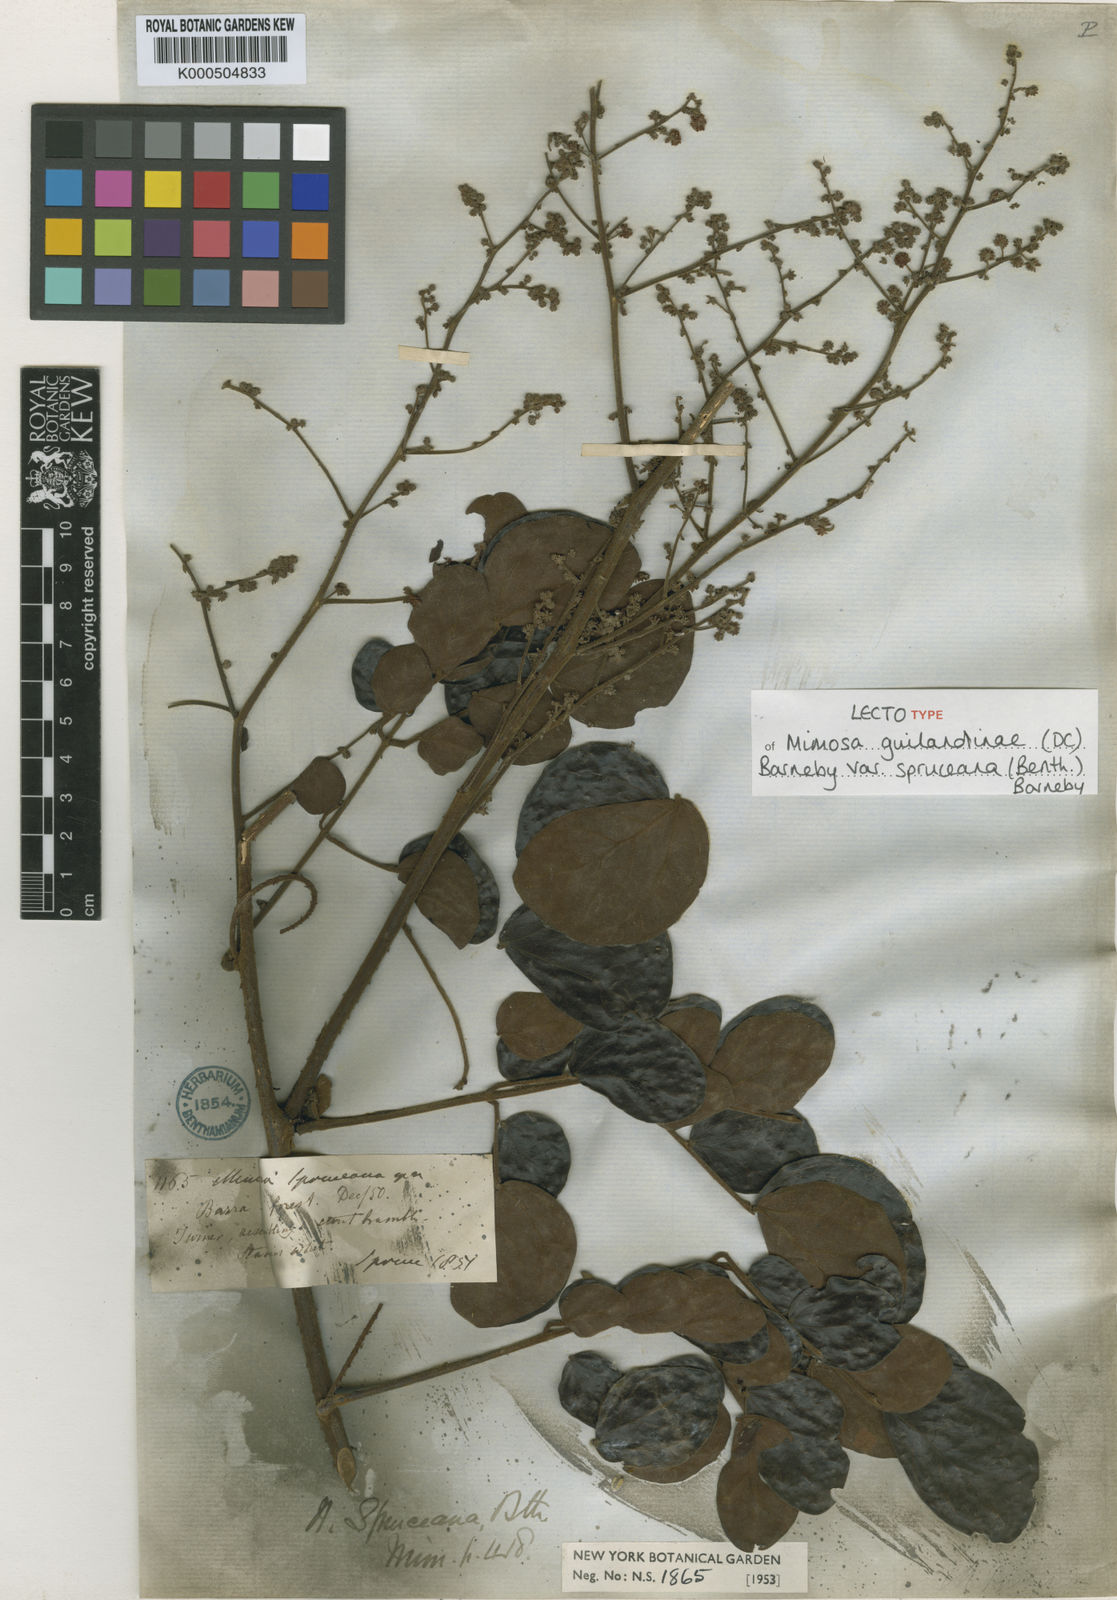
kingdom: Plantae
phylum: Tracheophyta
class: Magnoliopsida
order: Fabales
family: Fabaceae
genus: Mimosa
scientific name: Mimosa guilandinae
